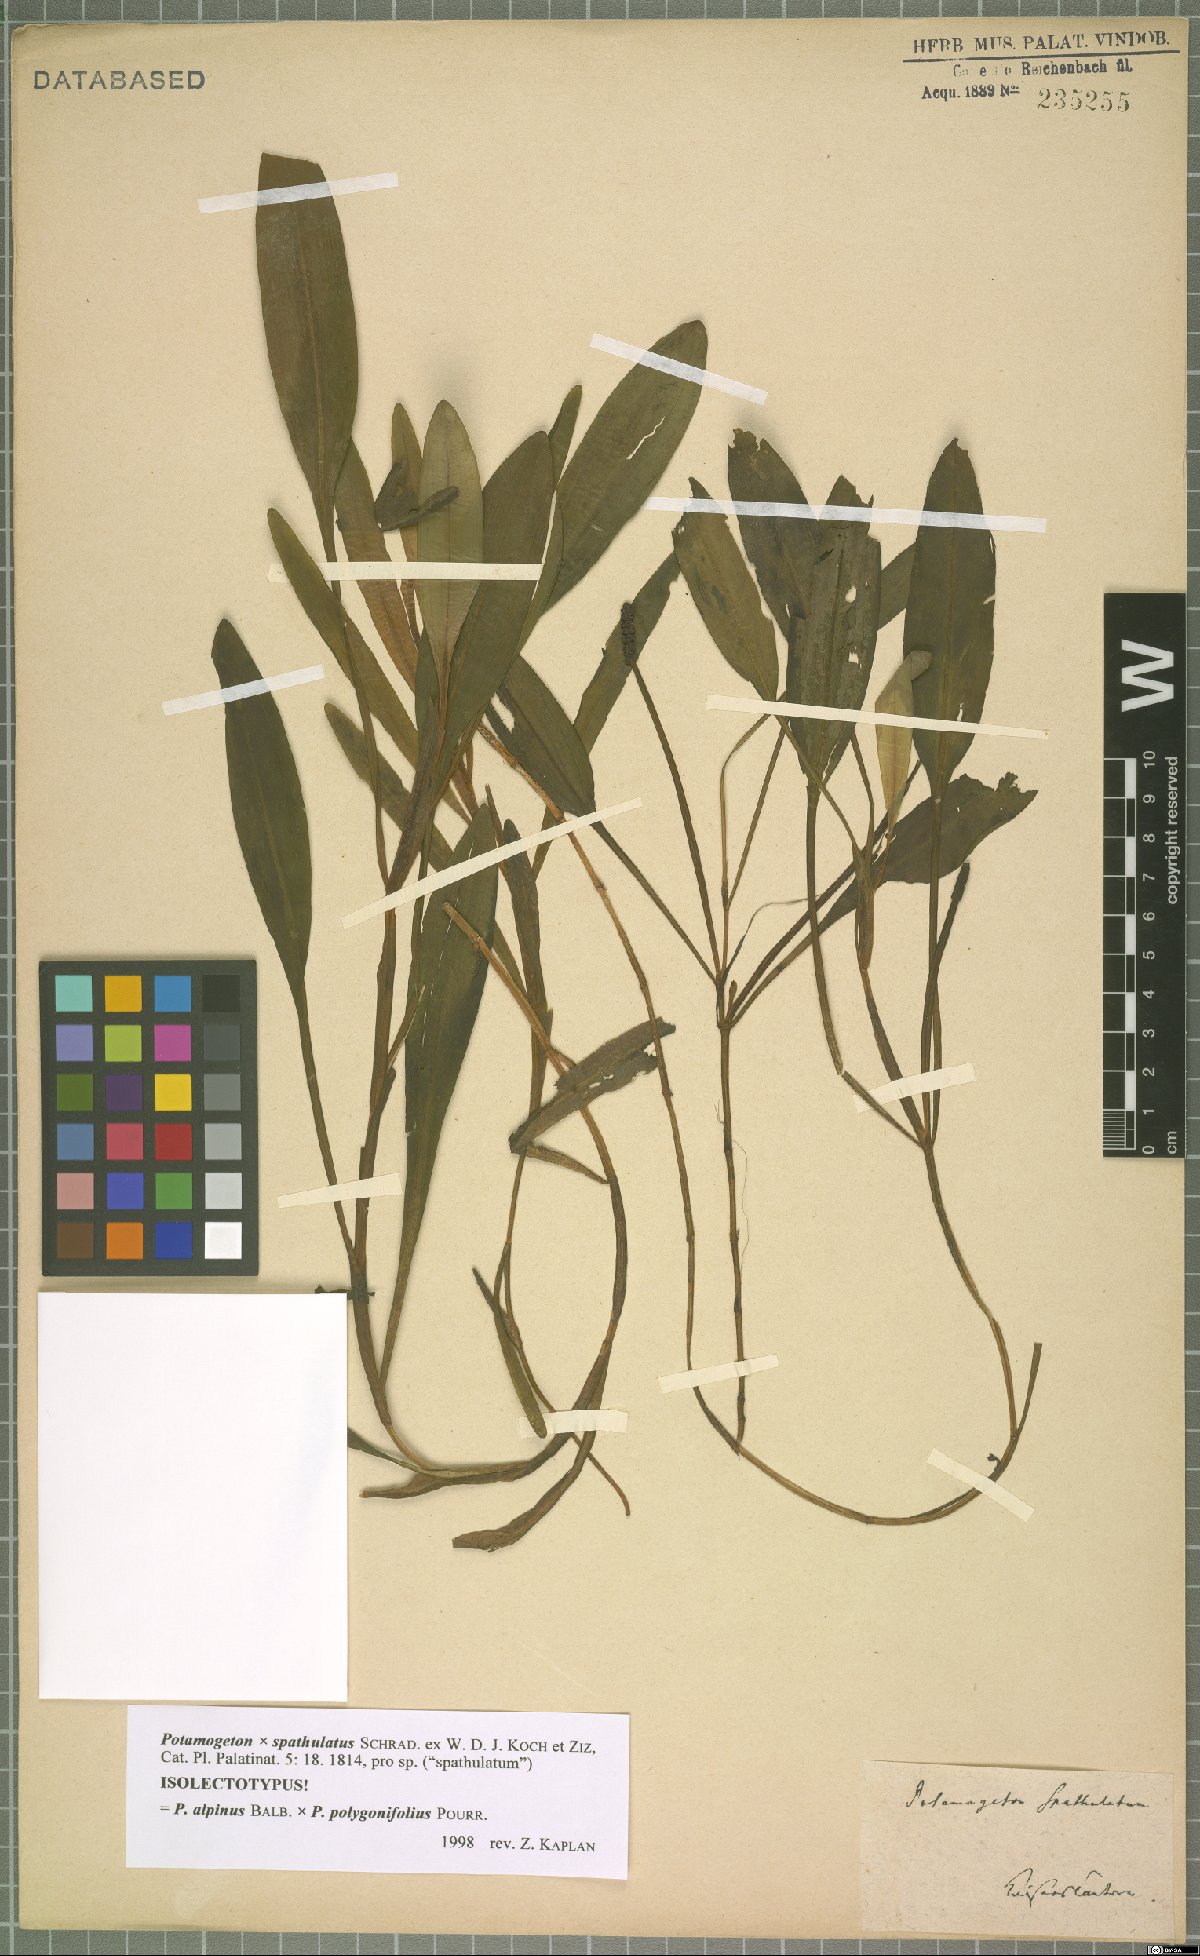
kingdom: Plantae
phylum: Tracheophyta
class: Liliopsida
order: Alismatales
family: Potamogetonaceae
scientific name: Potamogetonaceae
